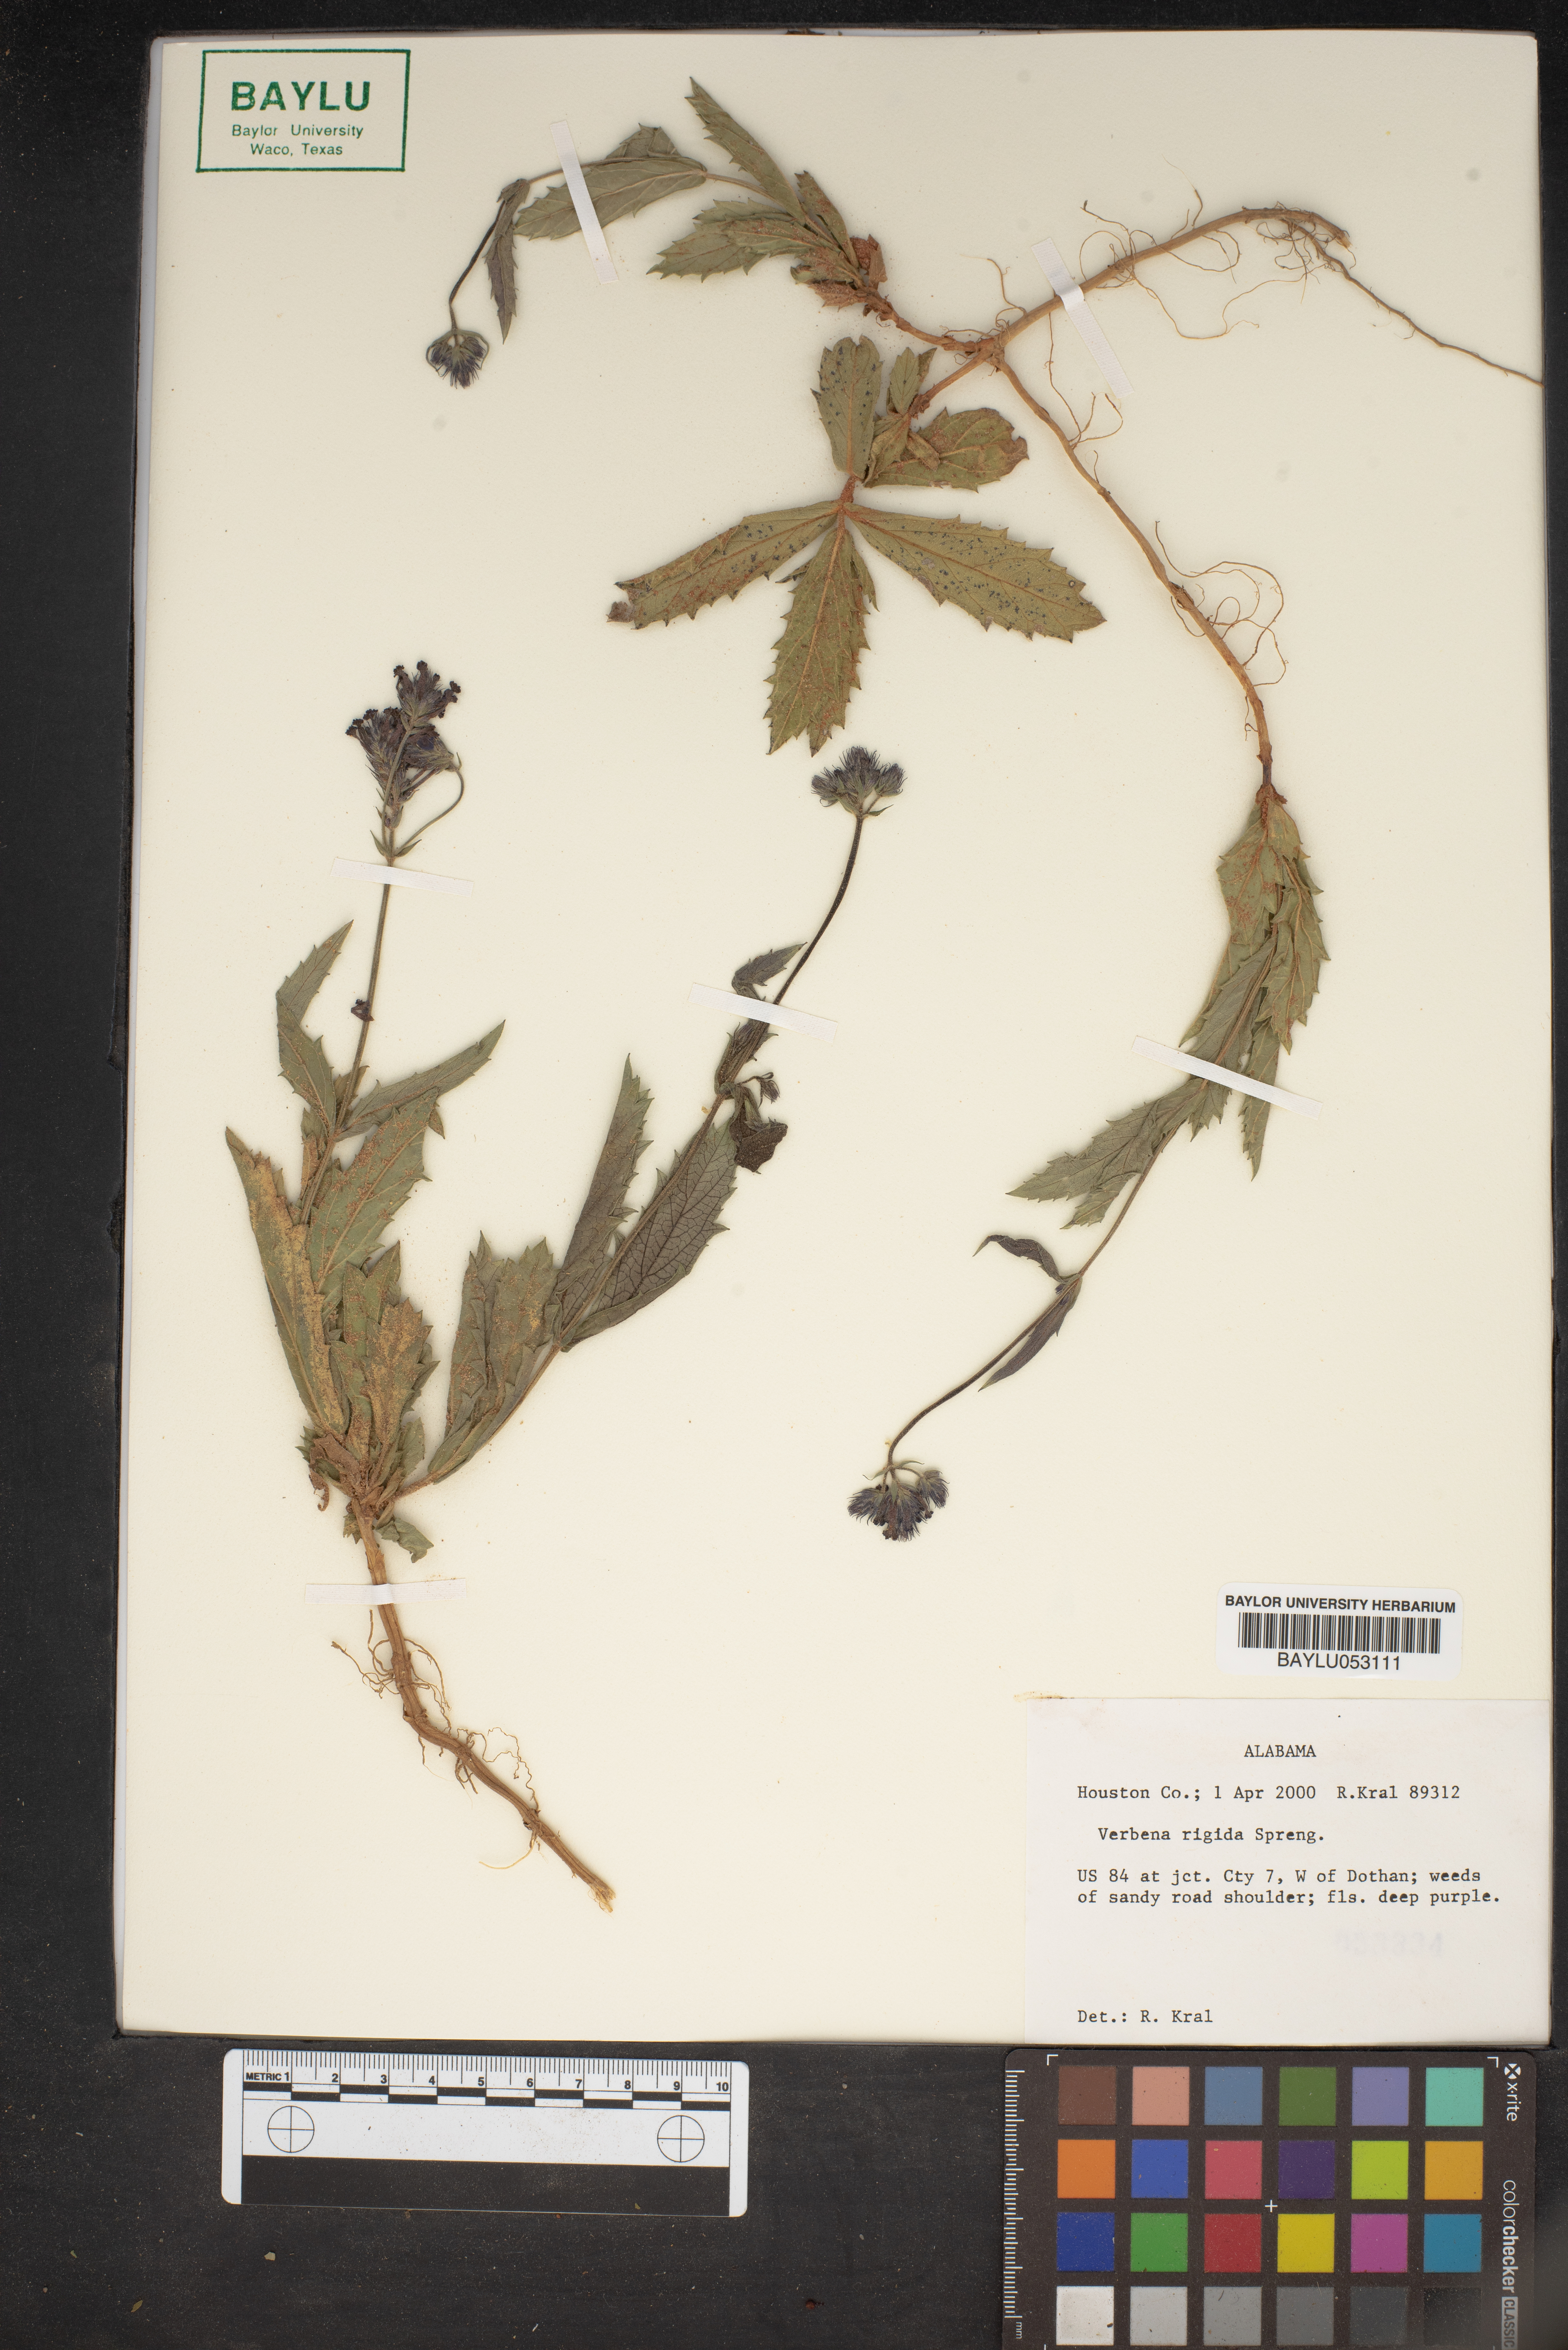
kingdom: Plantae
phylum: Tracheophyta
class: Magnoliopsida
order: Lamiales
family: Verbenaceae
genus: Verbena
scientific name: Verbena rigida
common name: Slender vervain
